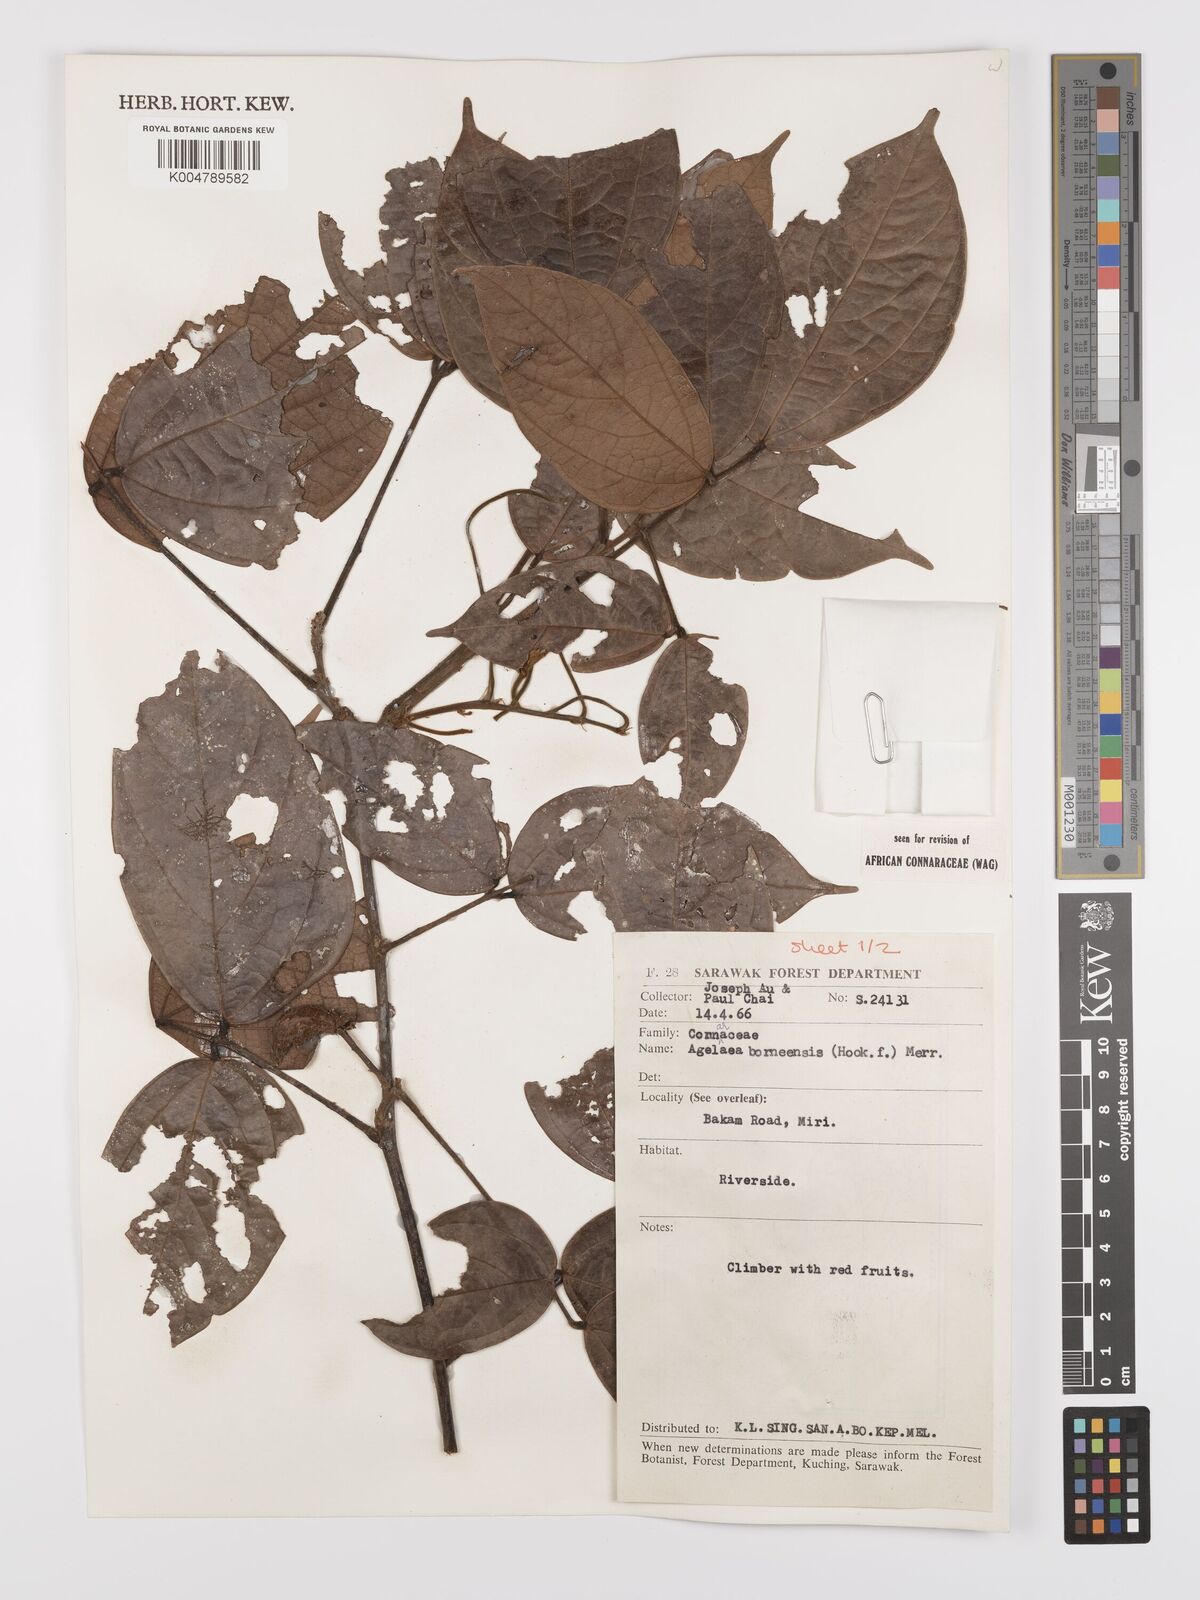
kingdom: Plantae
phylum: Tracheophyta
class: Magnoliopsida
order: Oxalidales
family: Connaraceae
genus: Agelaea
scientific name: Agelaea borneensis
